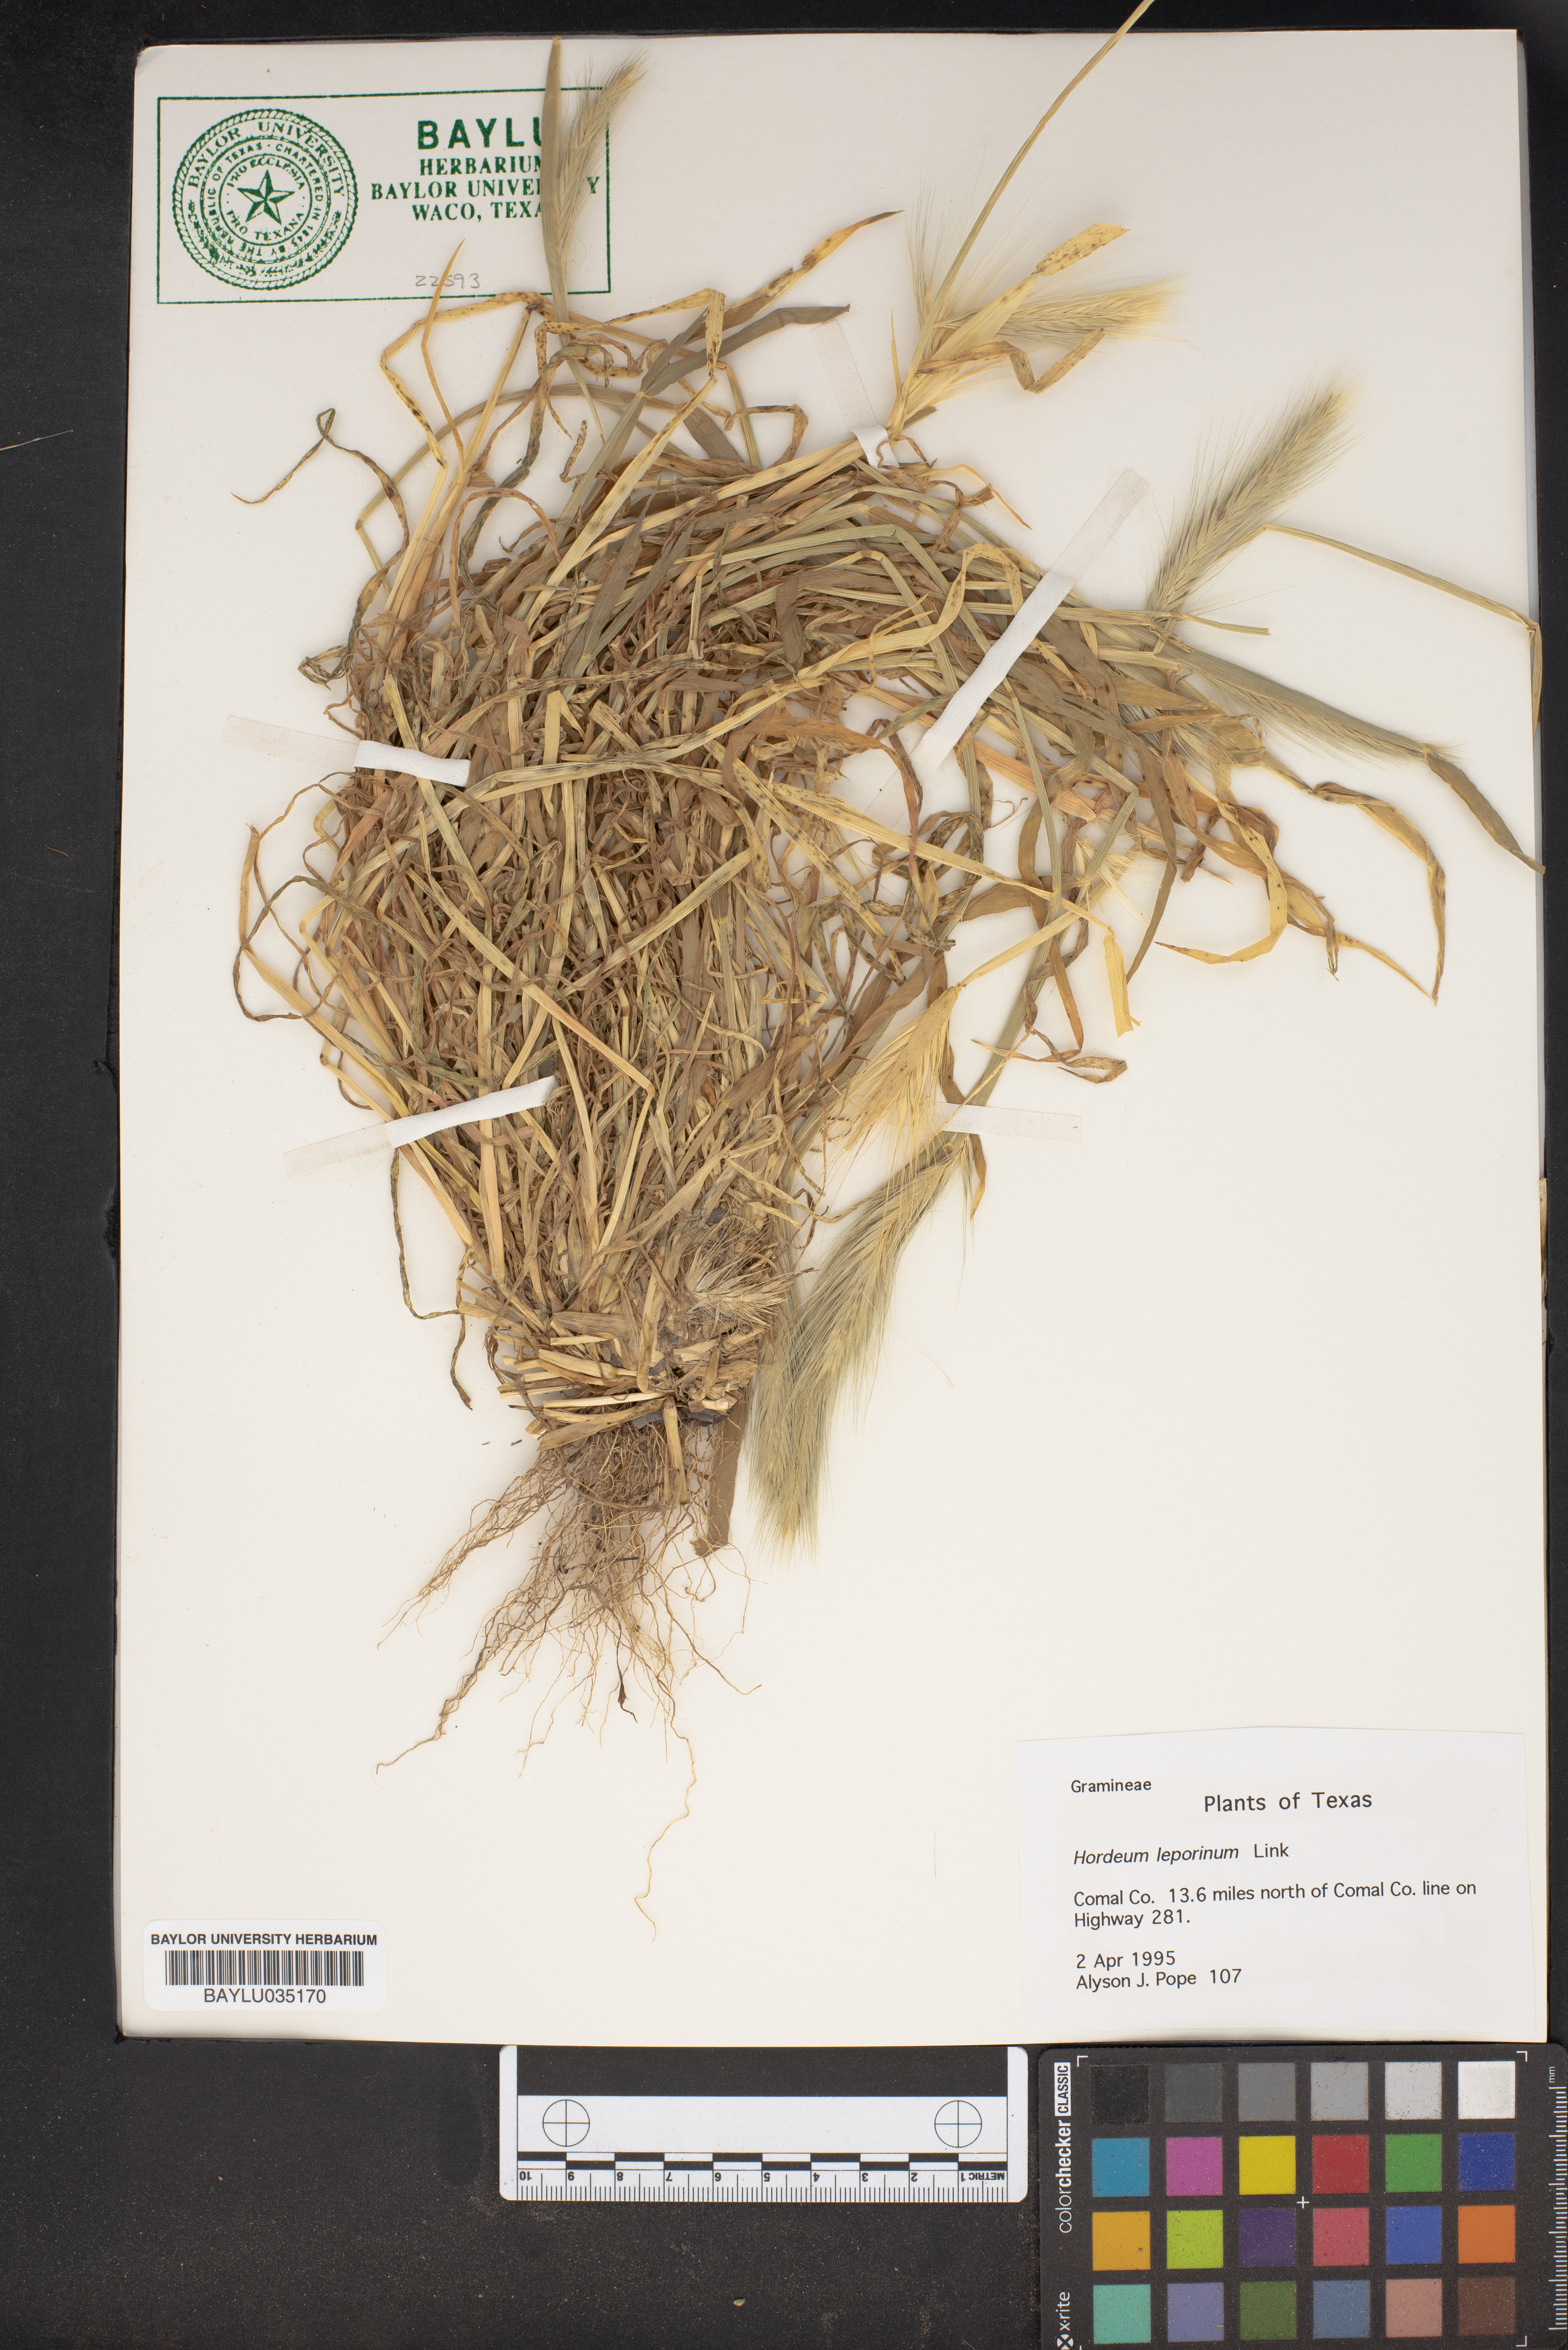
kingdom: Plantae
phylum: Tracheophyta
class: Liliopsida
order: Poales
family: Poaceae
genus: Hordeum
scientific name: Hordeum murinum
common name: Wall barley
